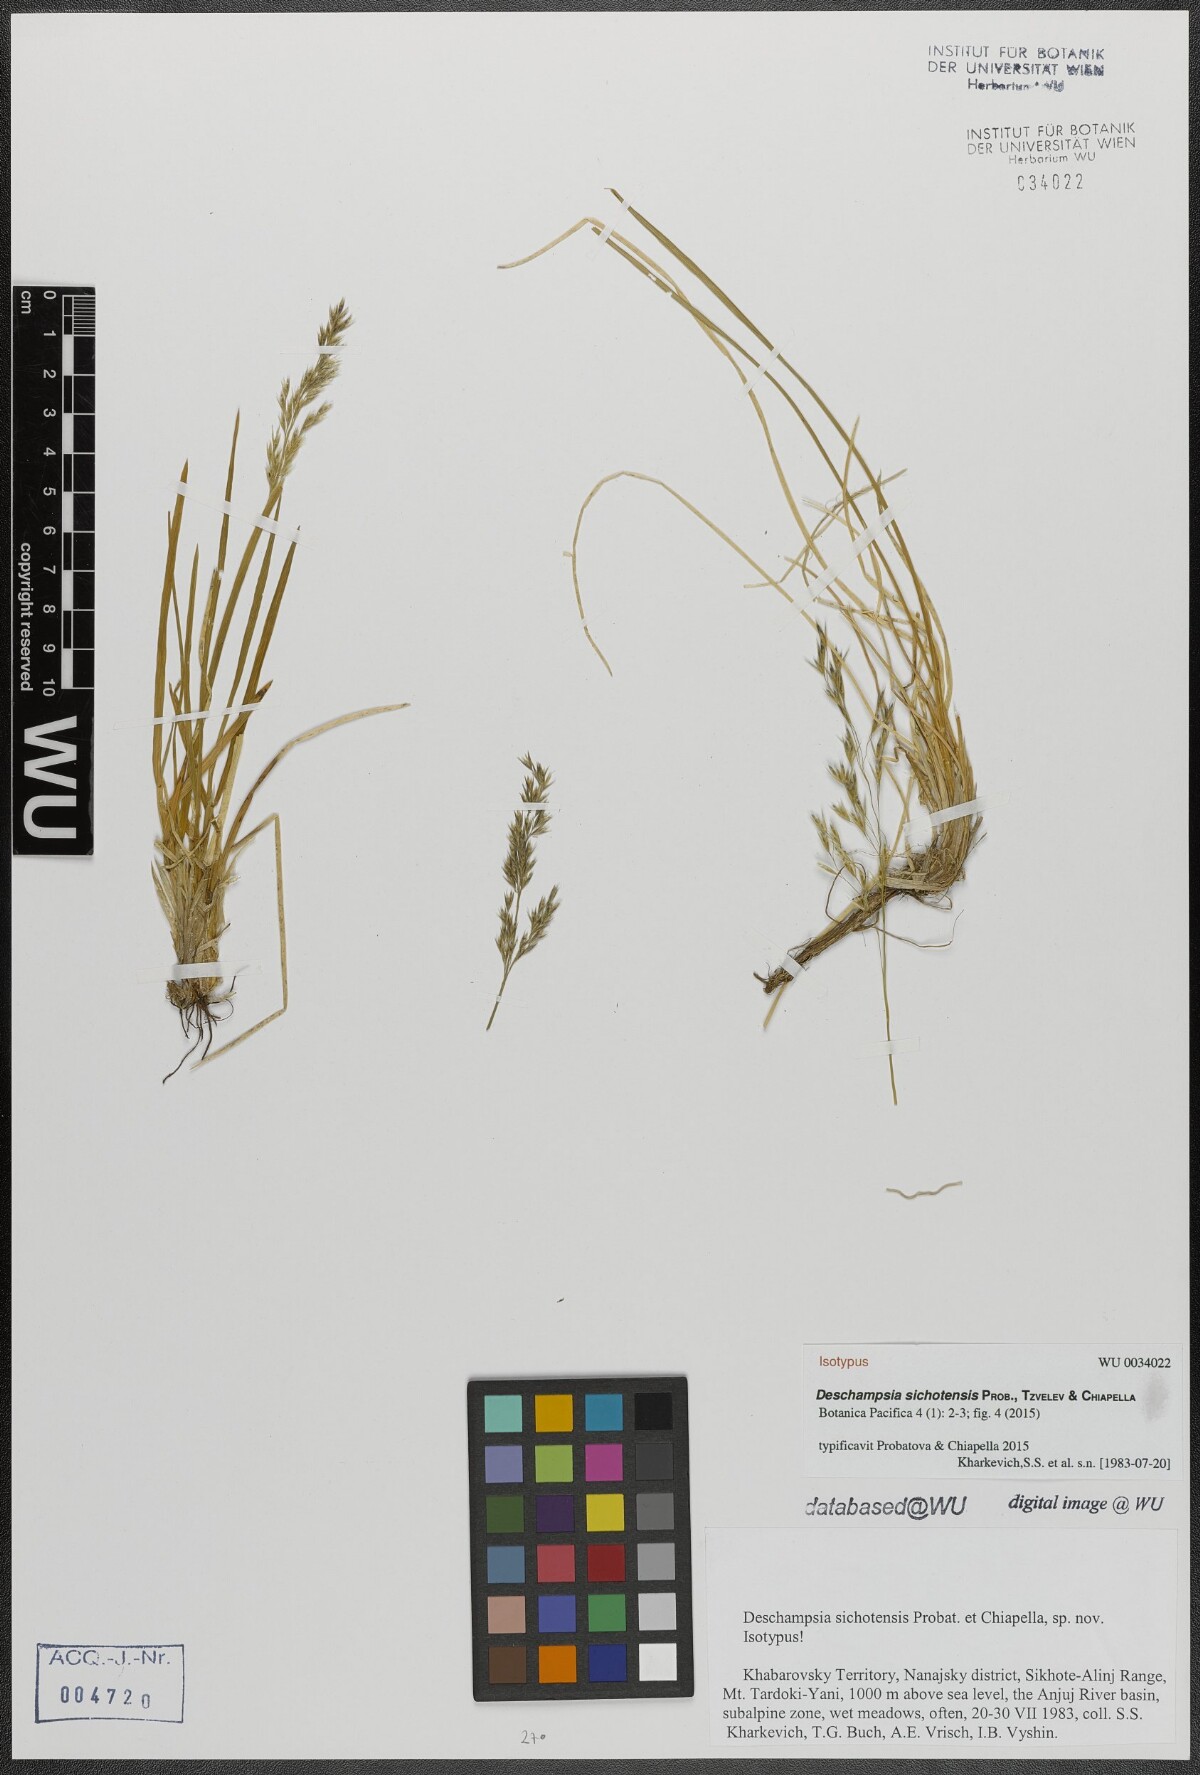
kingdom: Plantae
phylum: Tracheophyta
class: Liliopsida
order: Poales
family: Poaceae
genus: Deschampsia
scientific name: Deschampsia sichotensis
